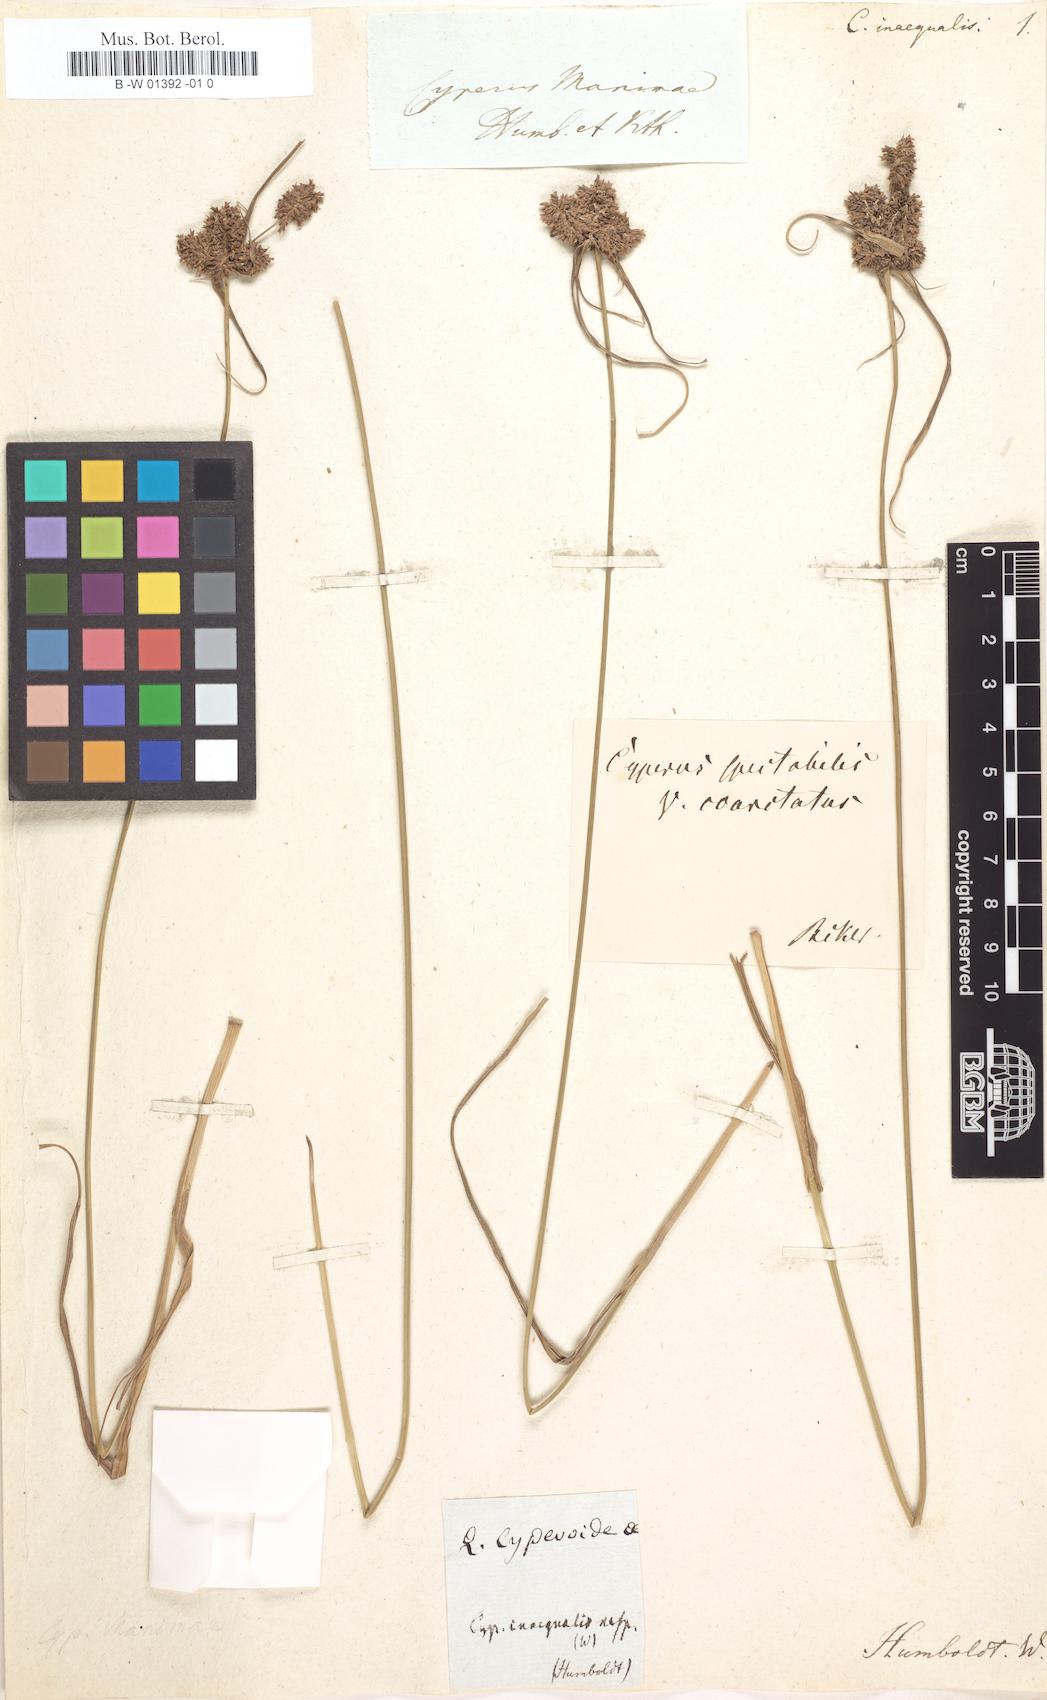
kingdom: Plantae
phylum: Tracheophyta
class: Liliopsida
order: Poales
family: Cyperaceae
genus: Cyperus
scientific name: Cyperus manimae
